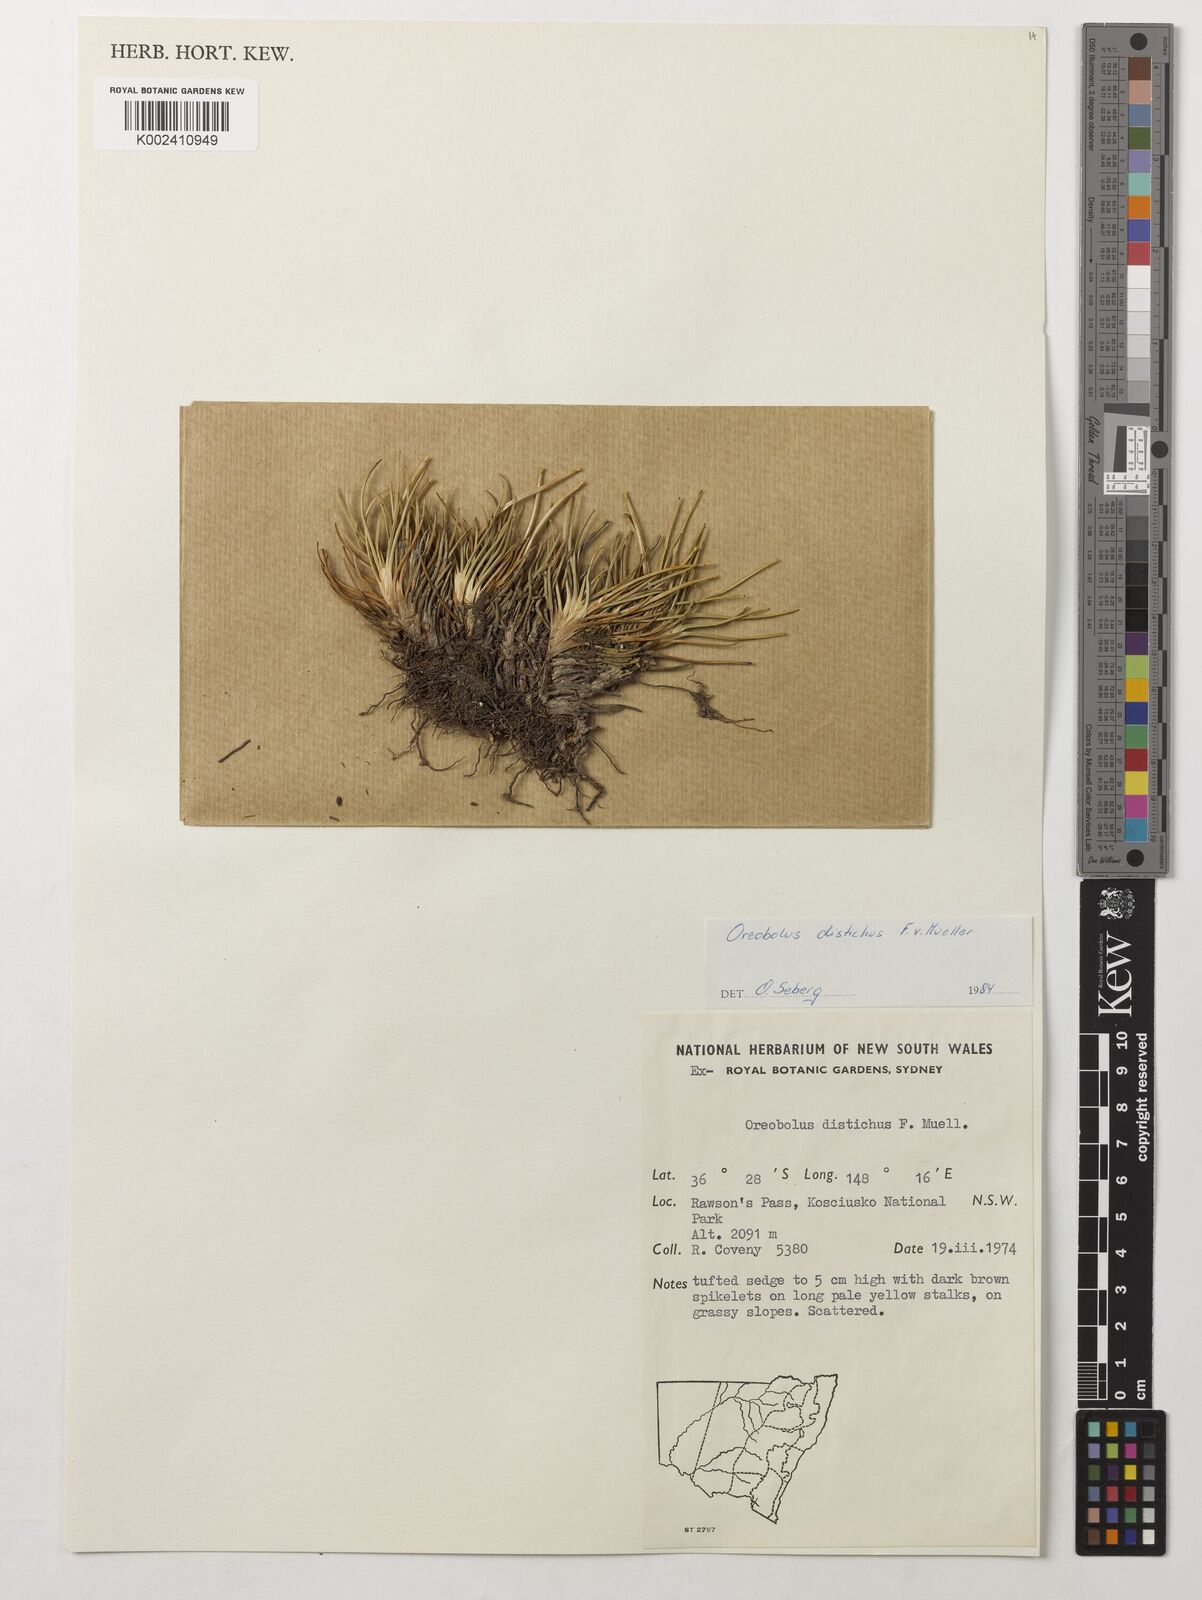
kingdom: Plantae
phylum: Tracheophyta
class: Liliopsida
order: Poales
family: Cyperaceae
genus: Oreobolus
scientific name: Oreobolus distichus
